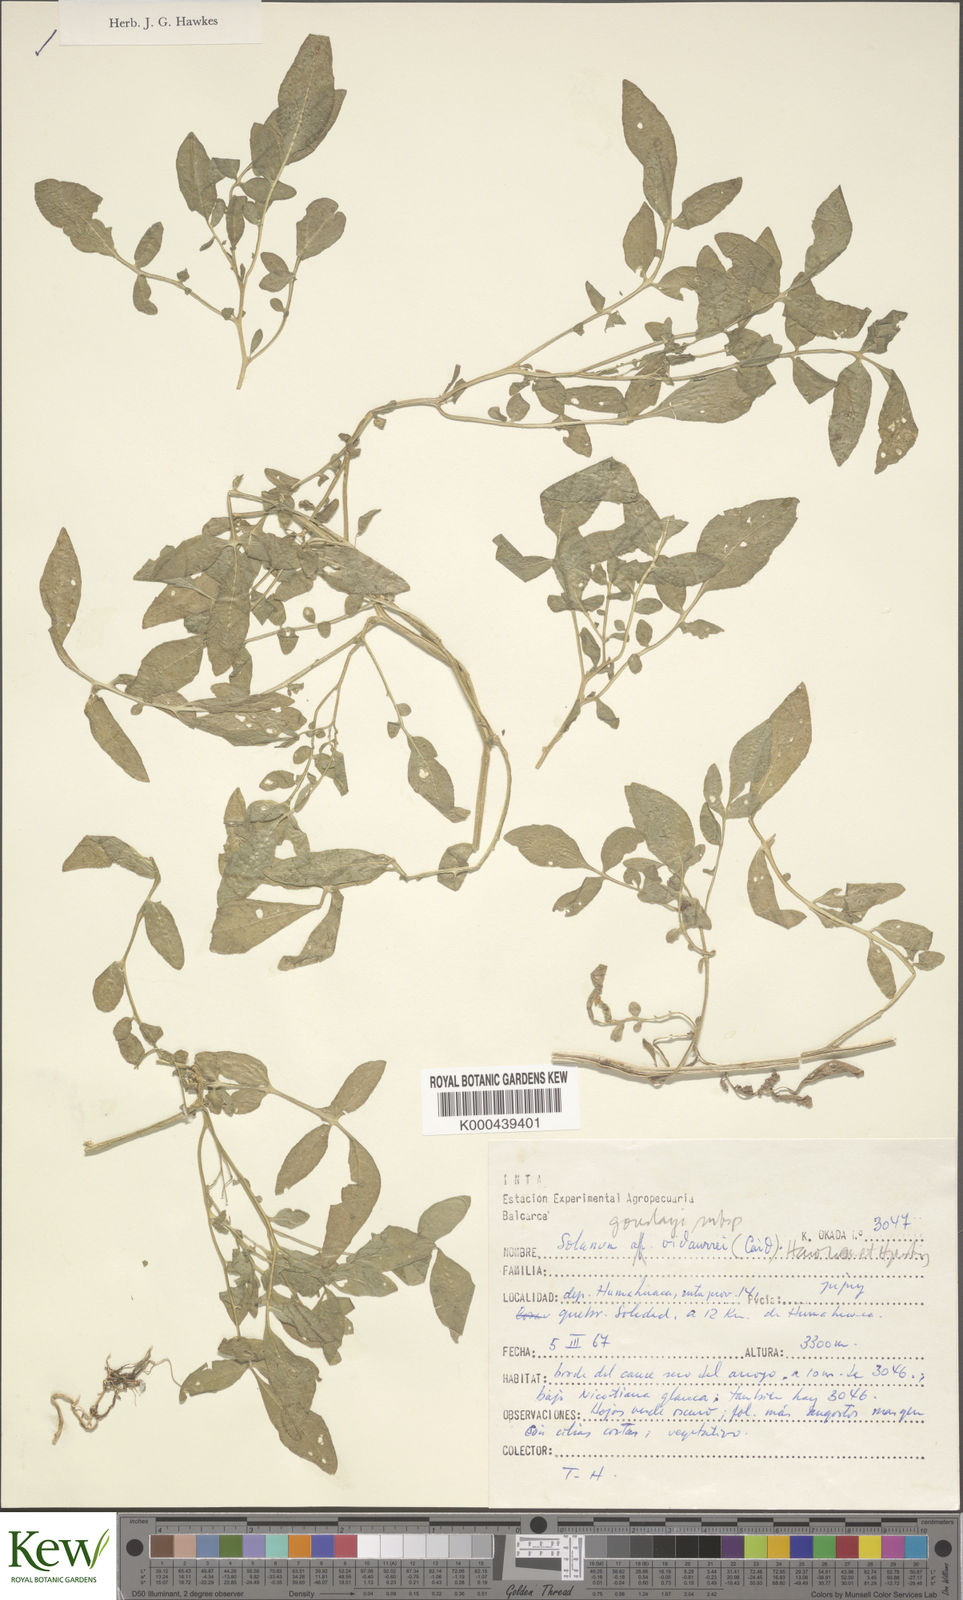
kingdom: Plantae
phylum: Tracheophyta
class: Magnoliopsida
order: Solanales
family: Solanaceae
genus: Solanum
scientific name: Solanum brevicaule
